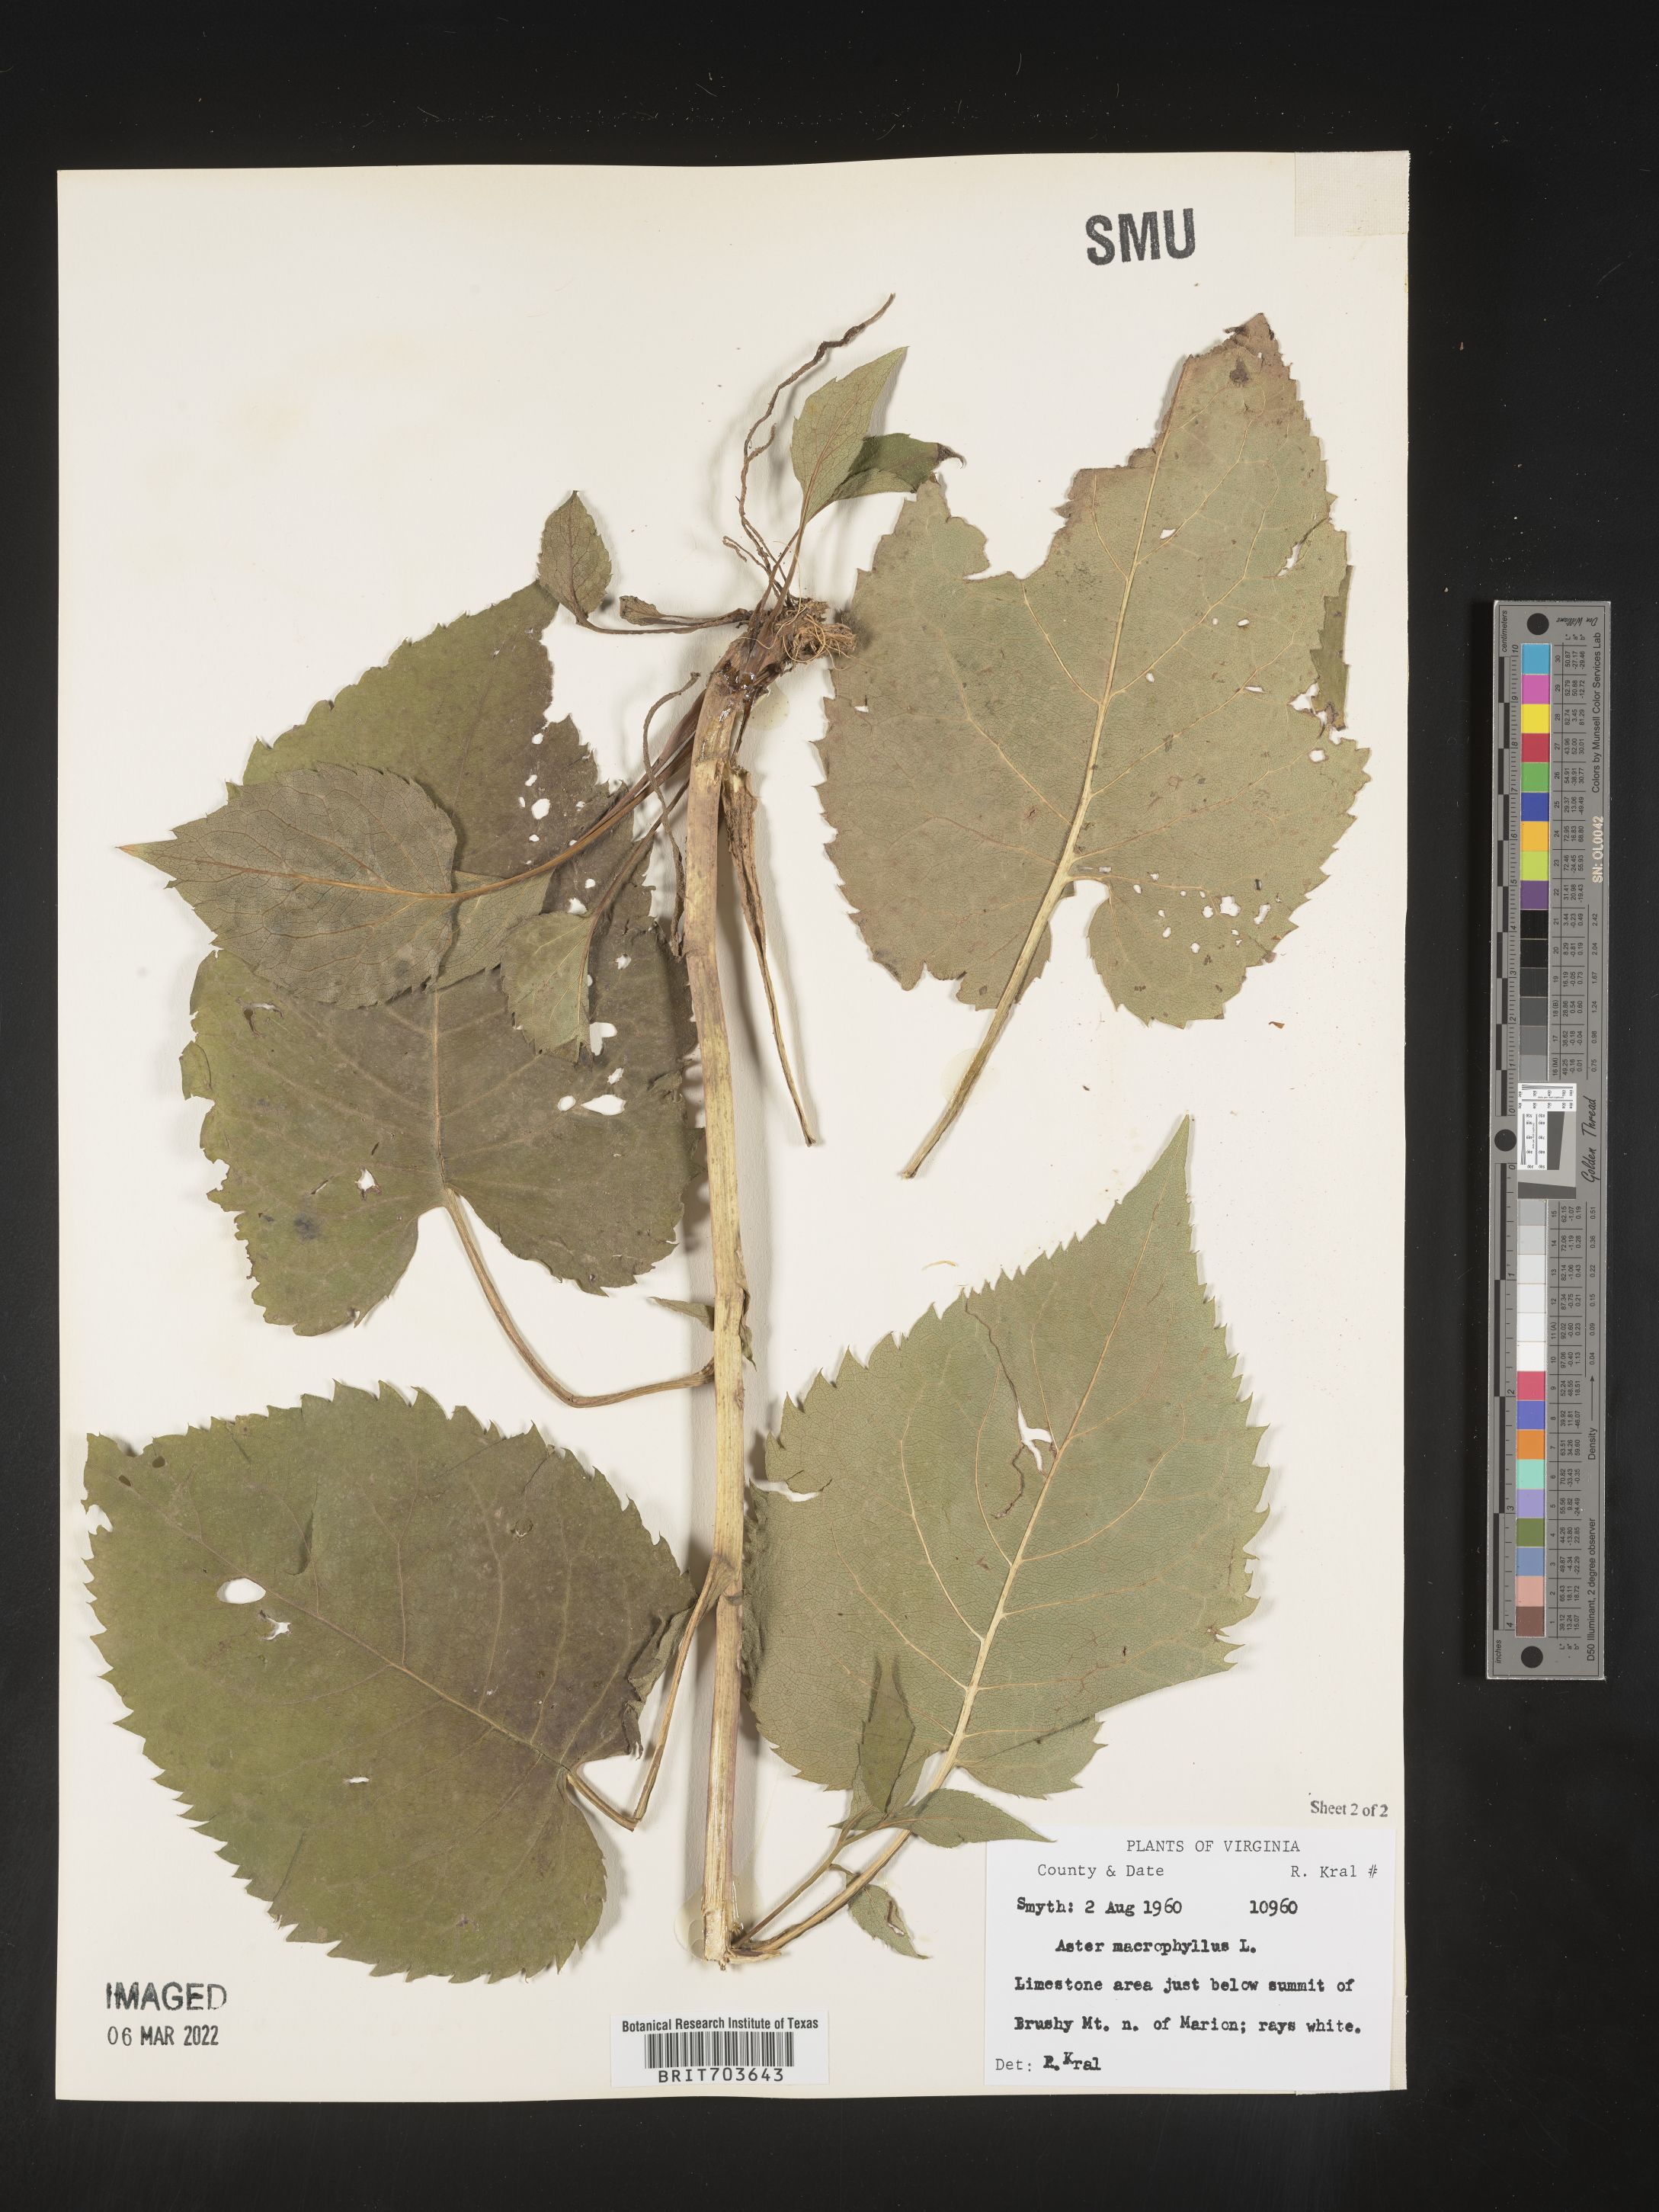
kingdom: Plantae
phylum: Tracheophyta
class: Magnoliopsida
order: Asterales
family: Asteraceae
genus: Eurybia
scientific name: Eurybia macrophylla
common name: Big-leaved aster
